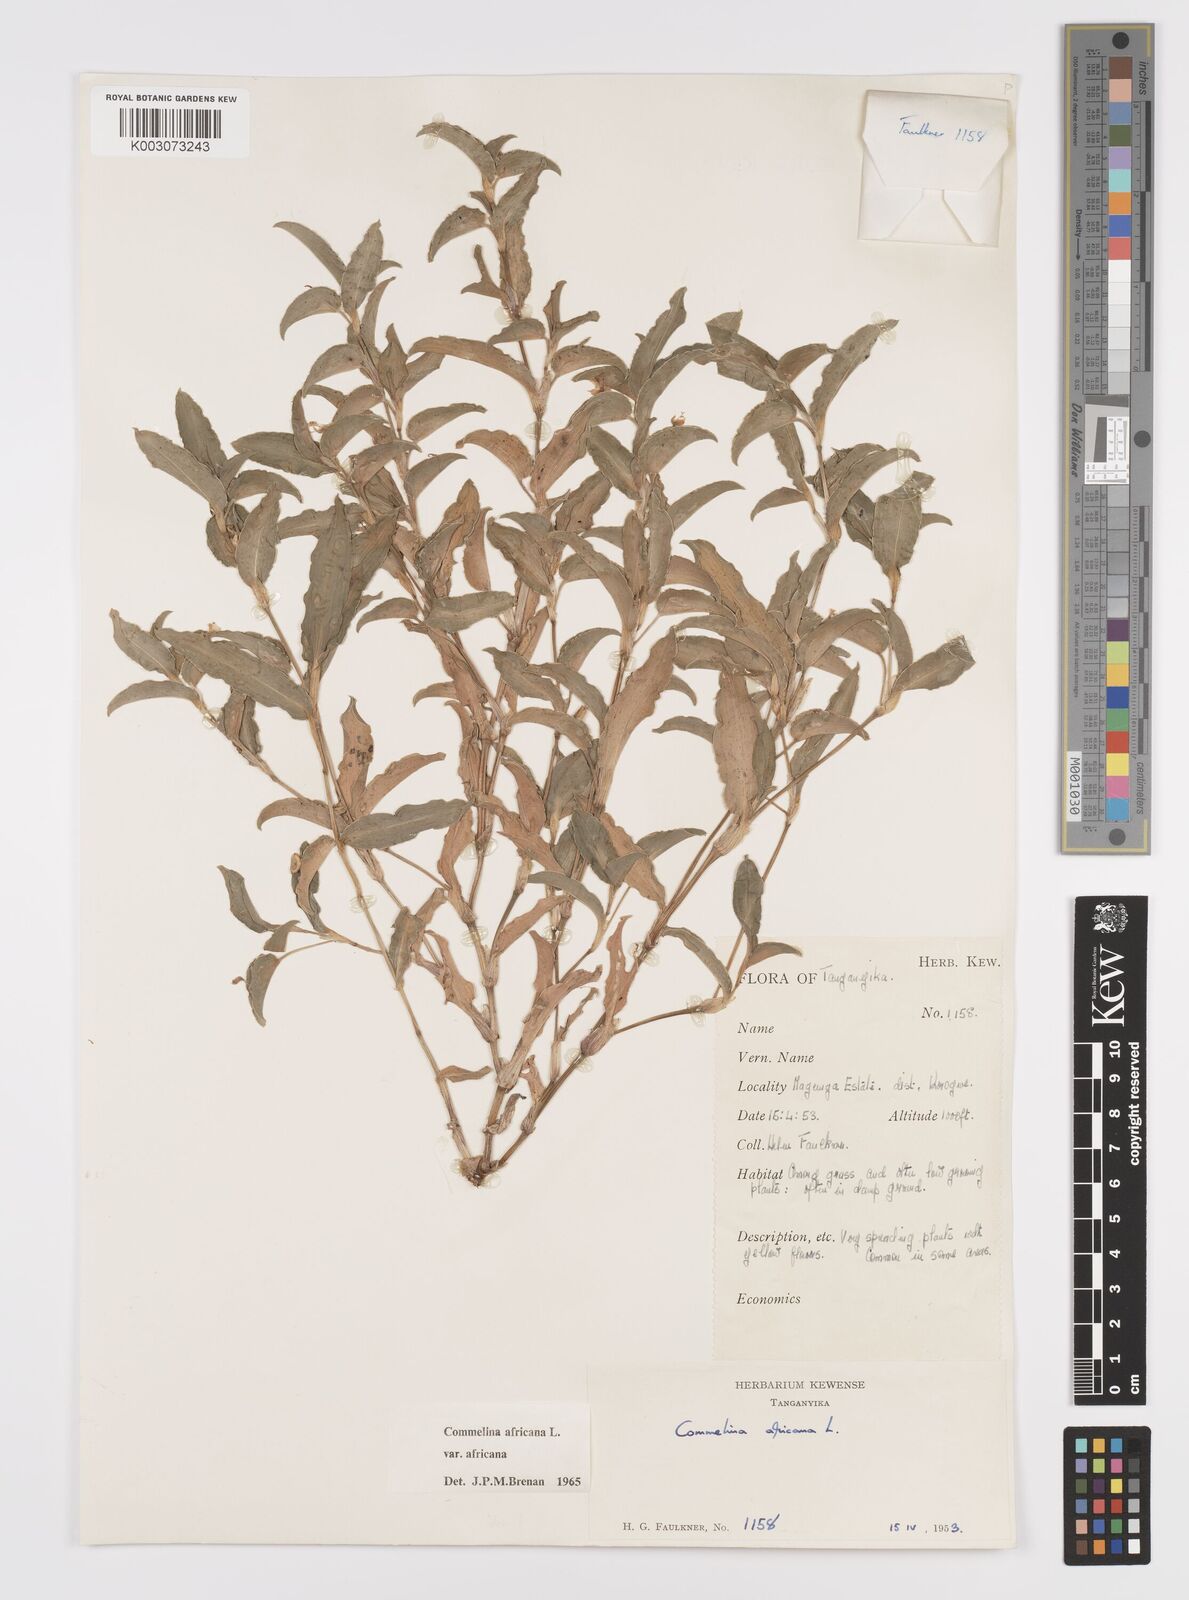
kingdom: Plantae
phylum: Tracheophyta
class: Liliopsida
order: Commelinales
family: Commelinaceae
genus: Commelina
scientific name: Commelina africana
